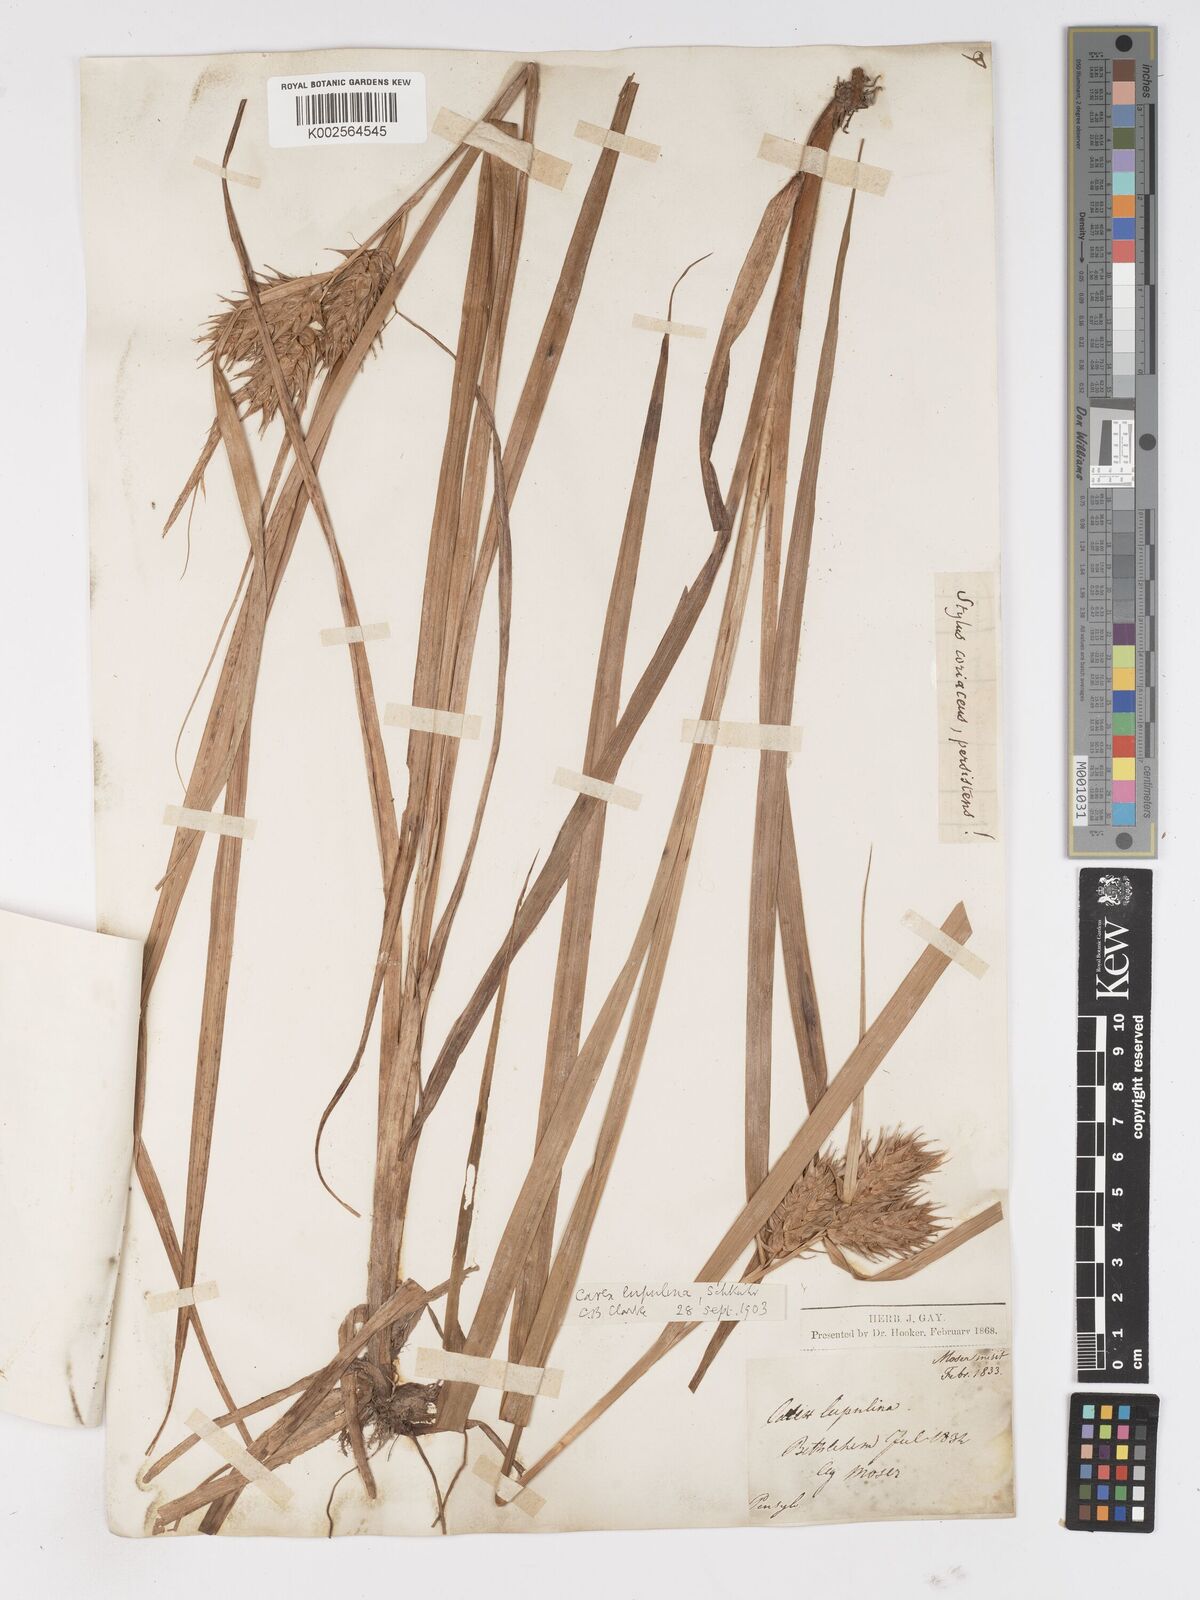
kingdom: Plantae
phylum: Tracheophyta
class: Liliopsida
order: Poales
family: Cyperaceae
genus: Carex
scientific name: Carex lupulina
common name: Hop sedge
